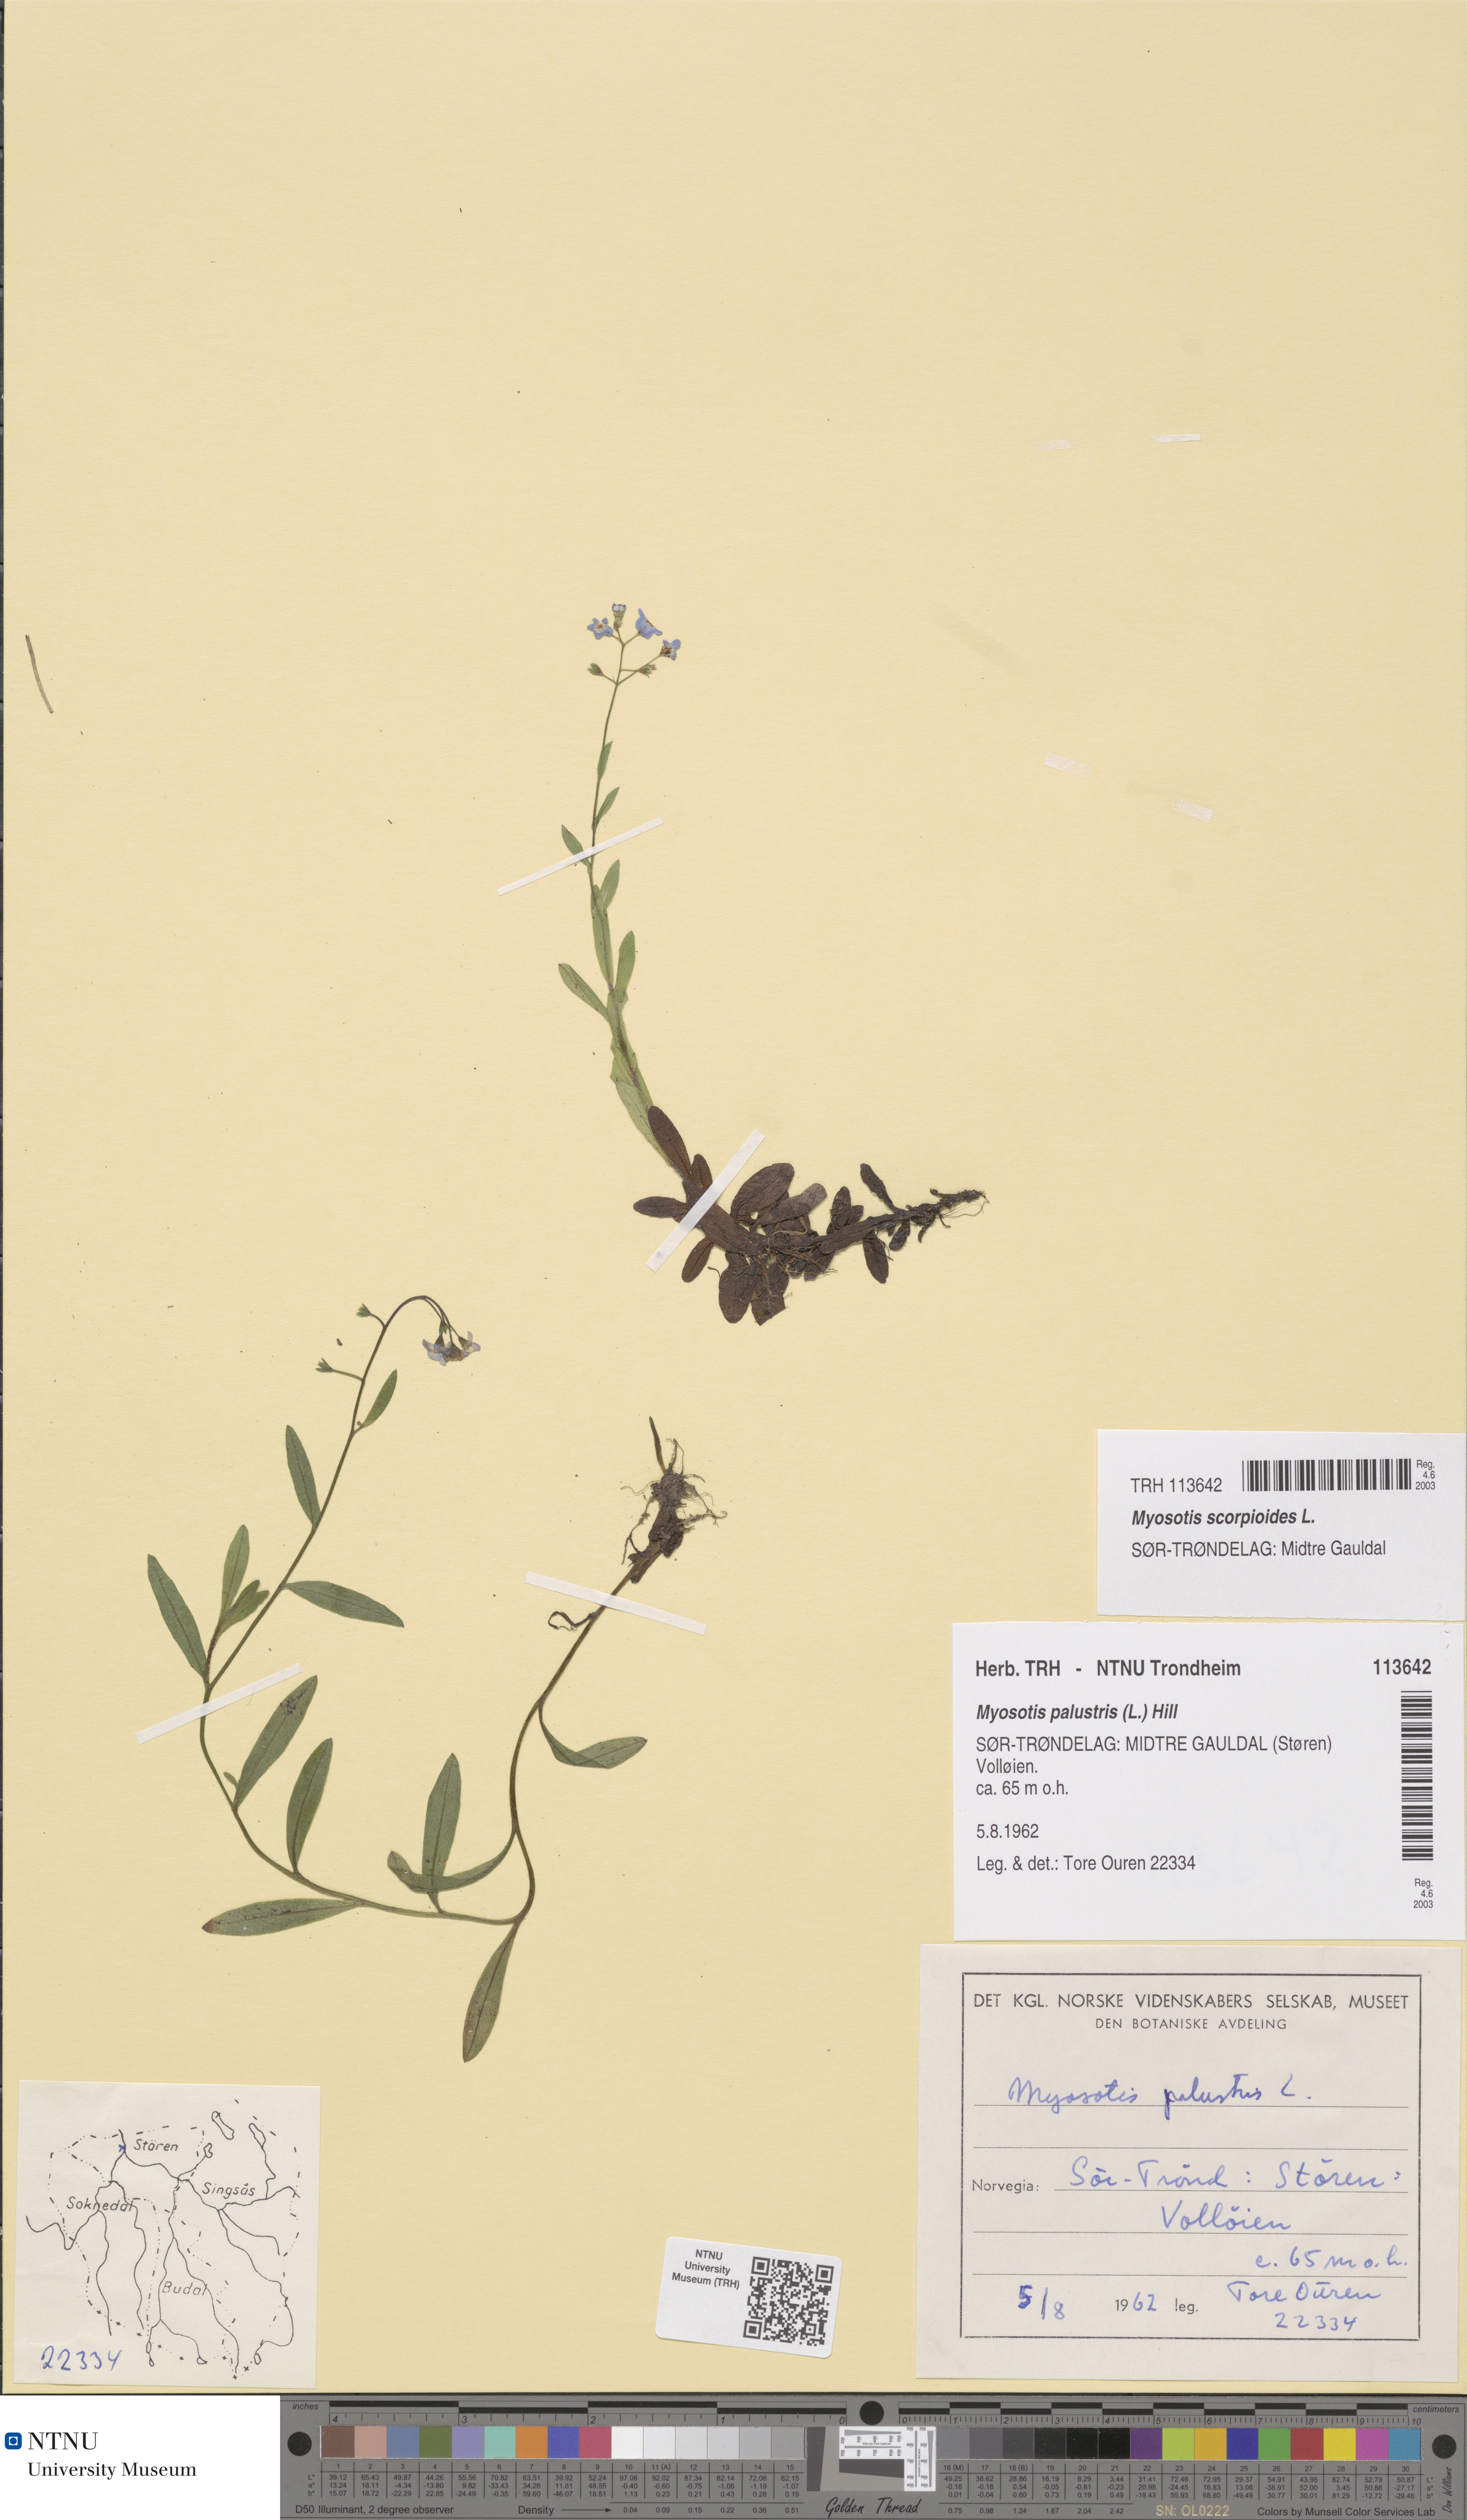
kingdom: Plantae
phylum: Tracheophyta
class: Magnoliopsida
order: Boraginales
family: Boraginaceae
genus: Myosotis
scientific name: Myosotis scorpioides
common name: Water forget-me-not
